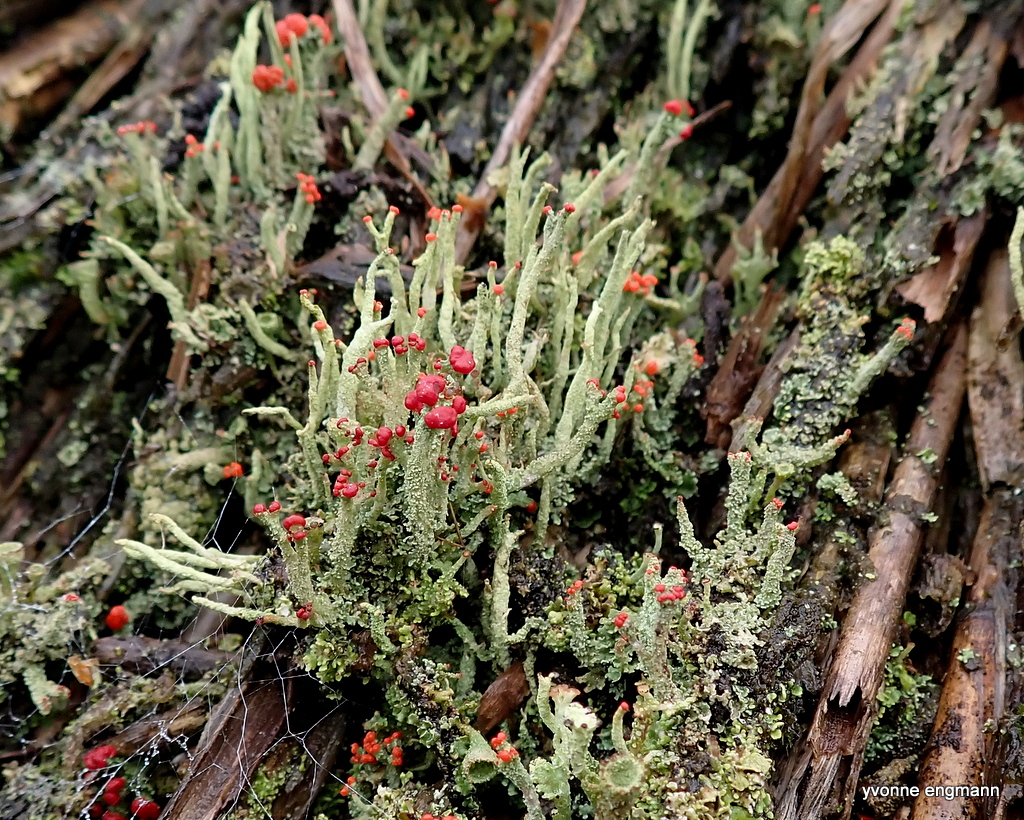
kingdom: Fungi
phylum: Ascomycota
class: Lecanoromycetes
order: Lecanorales
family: Cladoniaceae
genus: Cladonia
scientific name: Cladonia floerkeana
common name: lakrød bægerlav
